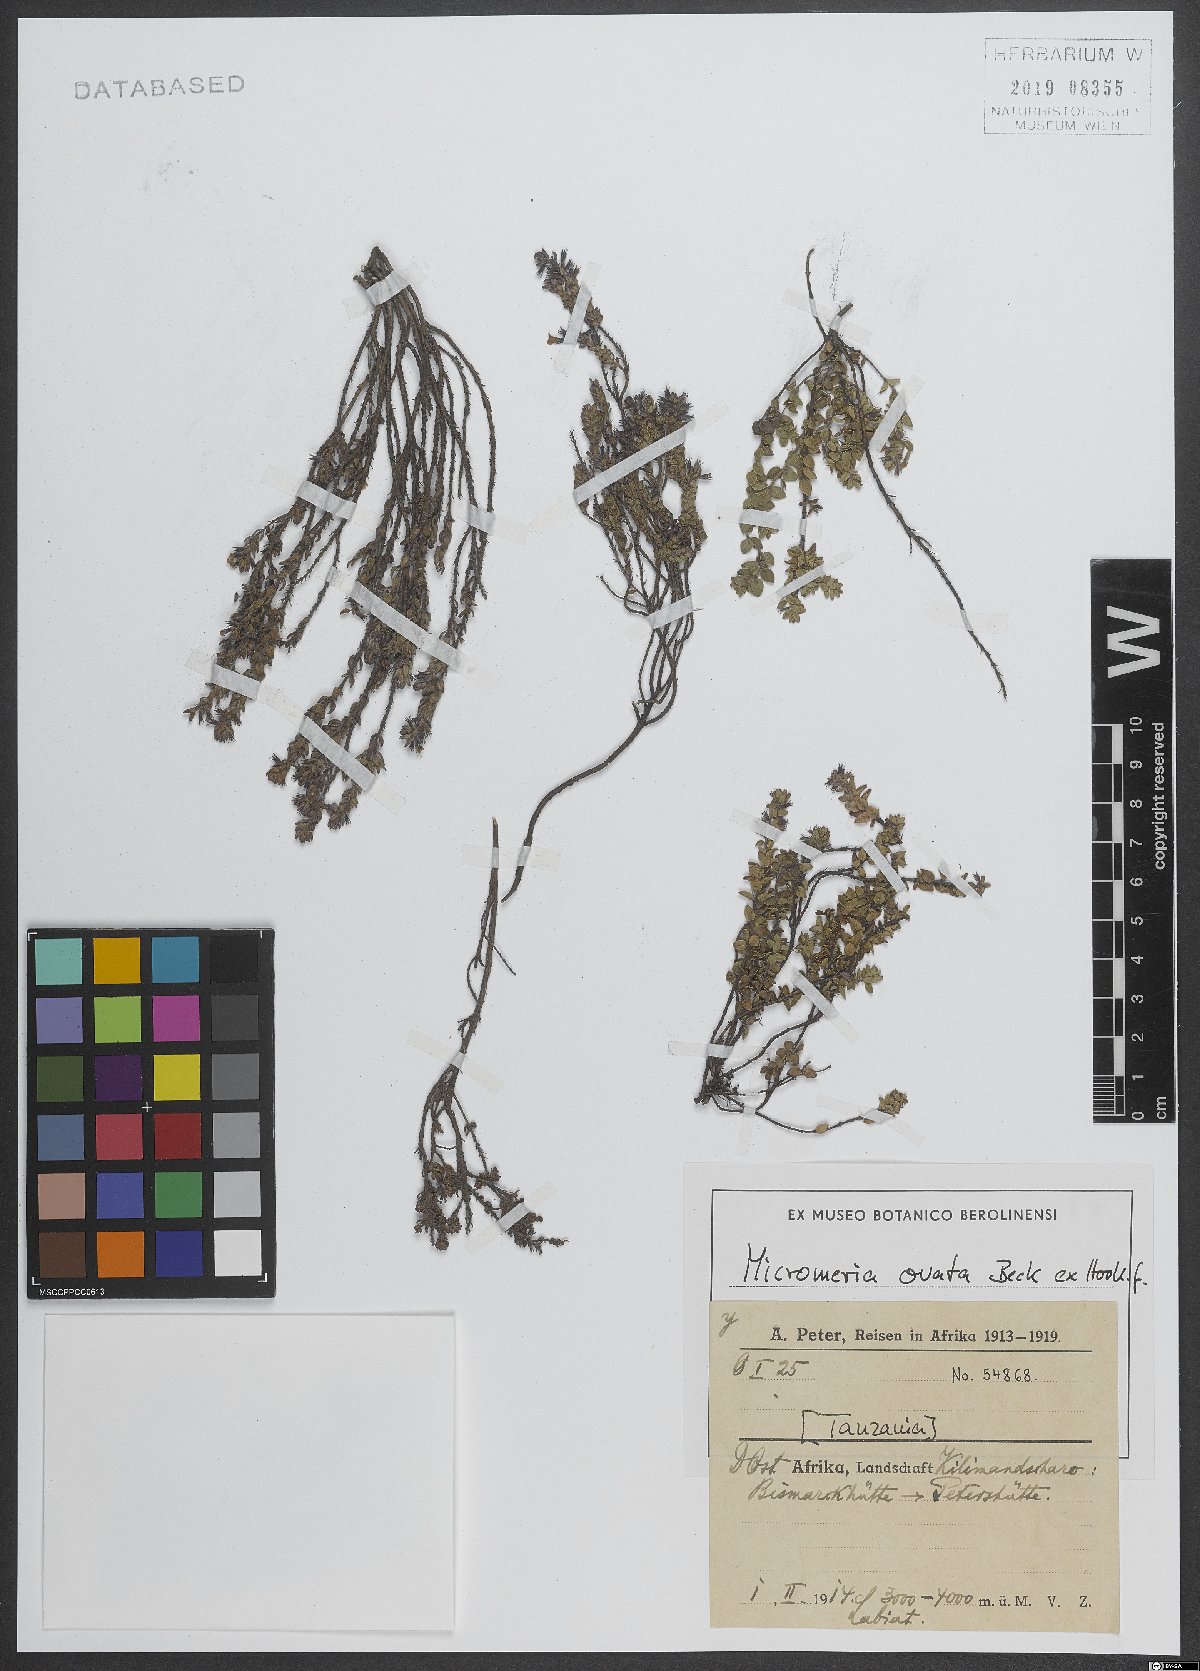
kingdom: Plantae
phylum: Tracheophyta
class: Magnoliopsida
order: Lamiales
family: Lamiaceae
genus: Micromeria
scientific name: Micromeria imbricata
